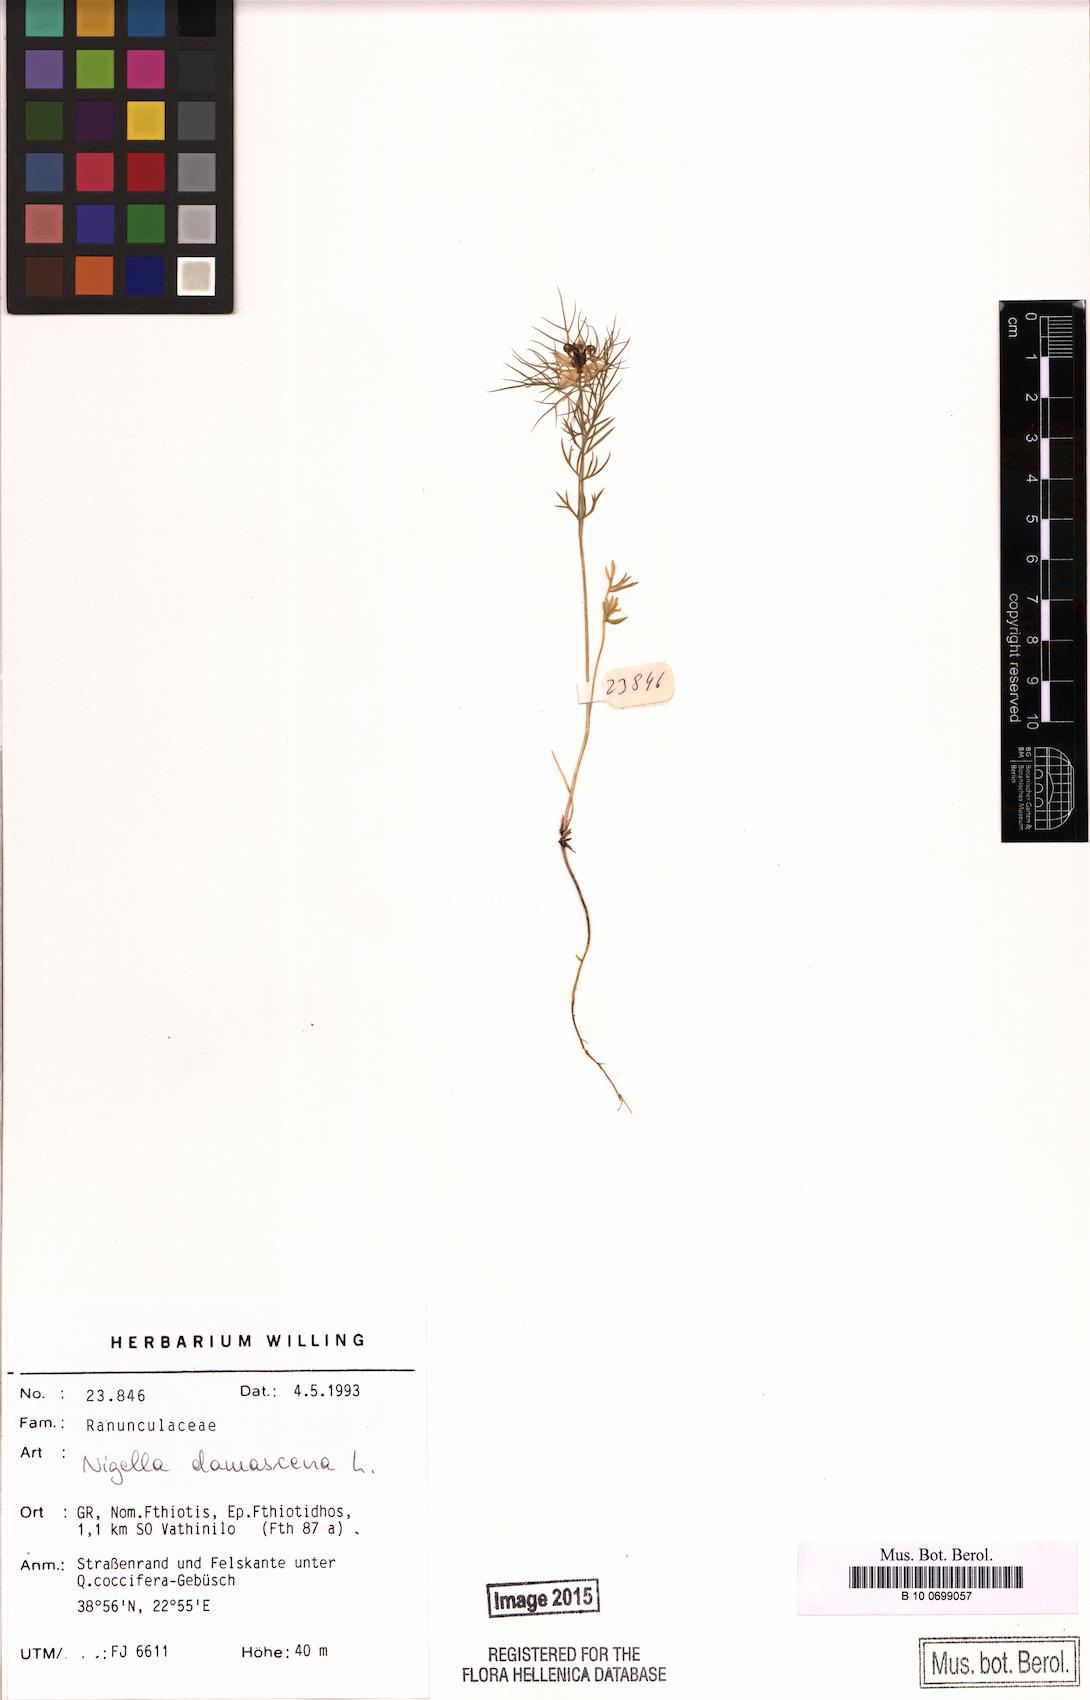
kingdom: Plantae
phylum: Tracheophyta
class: Magnoliopsida
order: Ranunculales
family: Ranunculaceae
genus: Nigella
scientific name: Nigella damascena
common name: Love-in-a-mist
